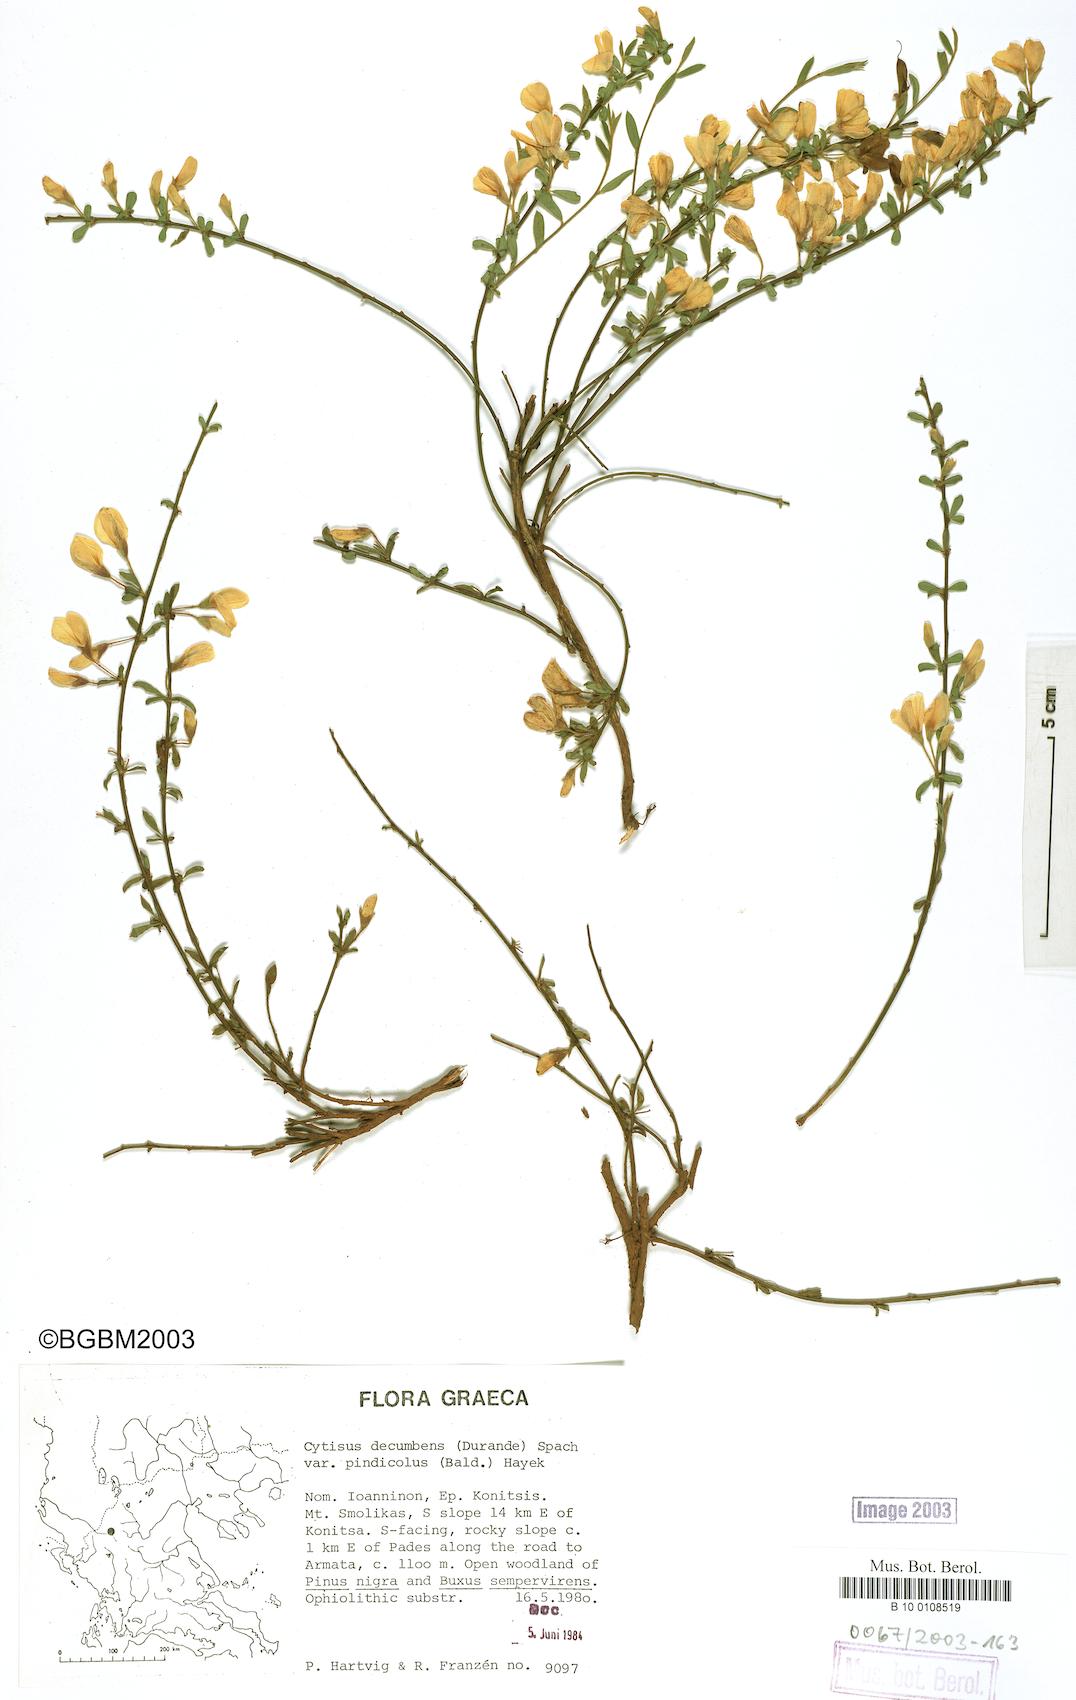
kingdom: Plantae
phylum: Tracheophyta
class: Magnoliopsida
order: Fabales
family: Fabaceae
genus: Cytisus
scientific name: Cytisus decumbens
